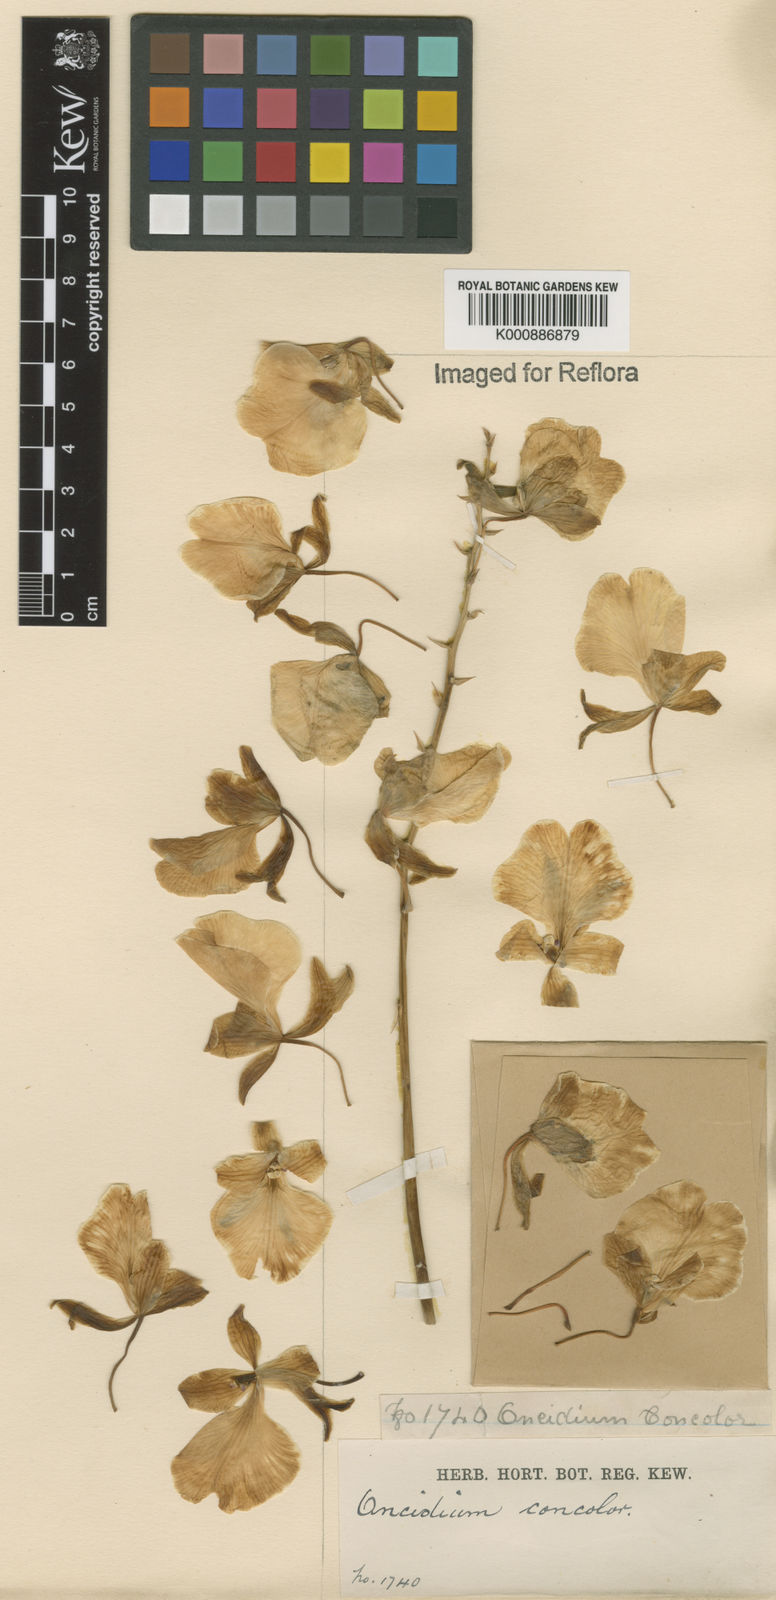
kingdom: Plantae
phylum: Tracheophyta
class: Liliopsida
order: Asparagales
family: Orchidaceae
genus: Gomesa
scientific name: Gomesa concolor
